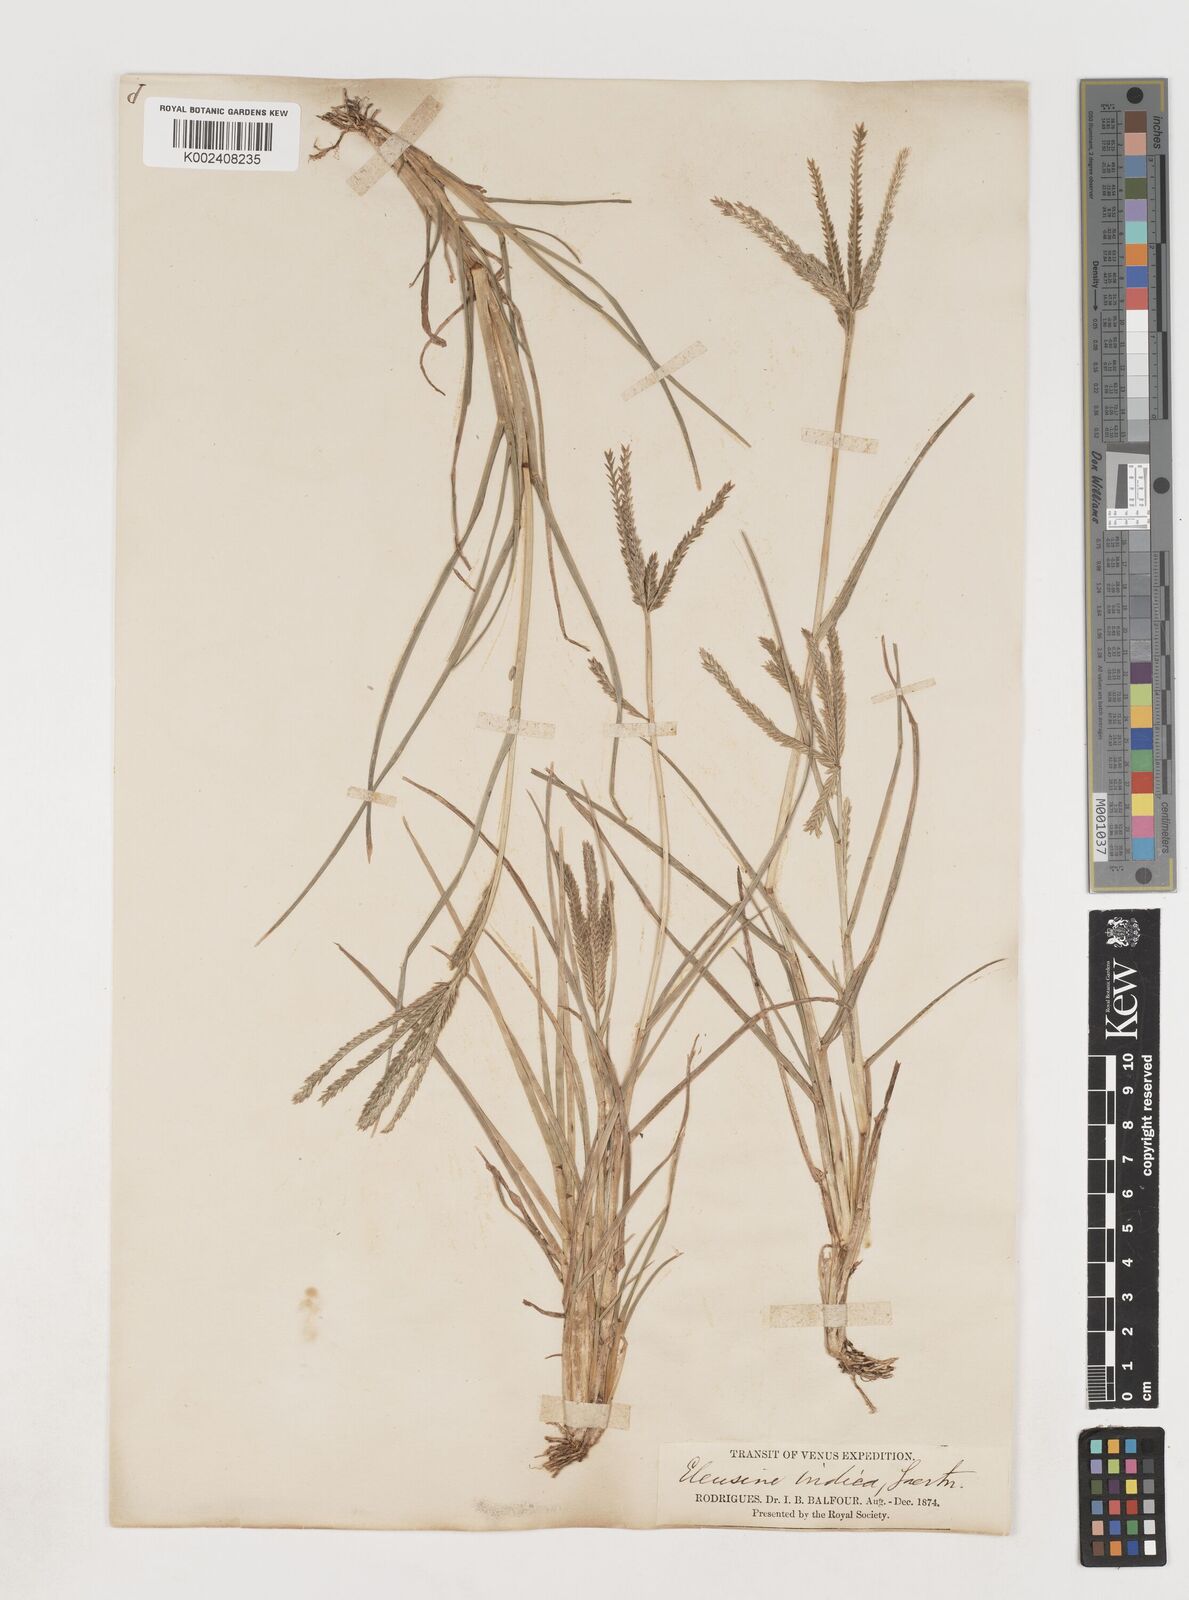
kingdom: Plantae
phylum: Tracheophyta
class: Liliopsida
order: Poales
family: Poaceae
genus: Eleusine
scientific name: Eleusine africana
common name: Wild african finger millet
